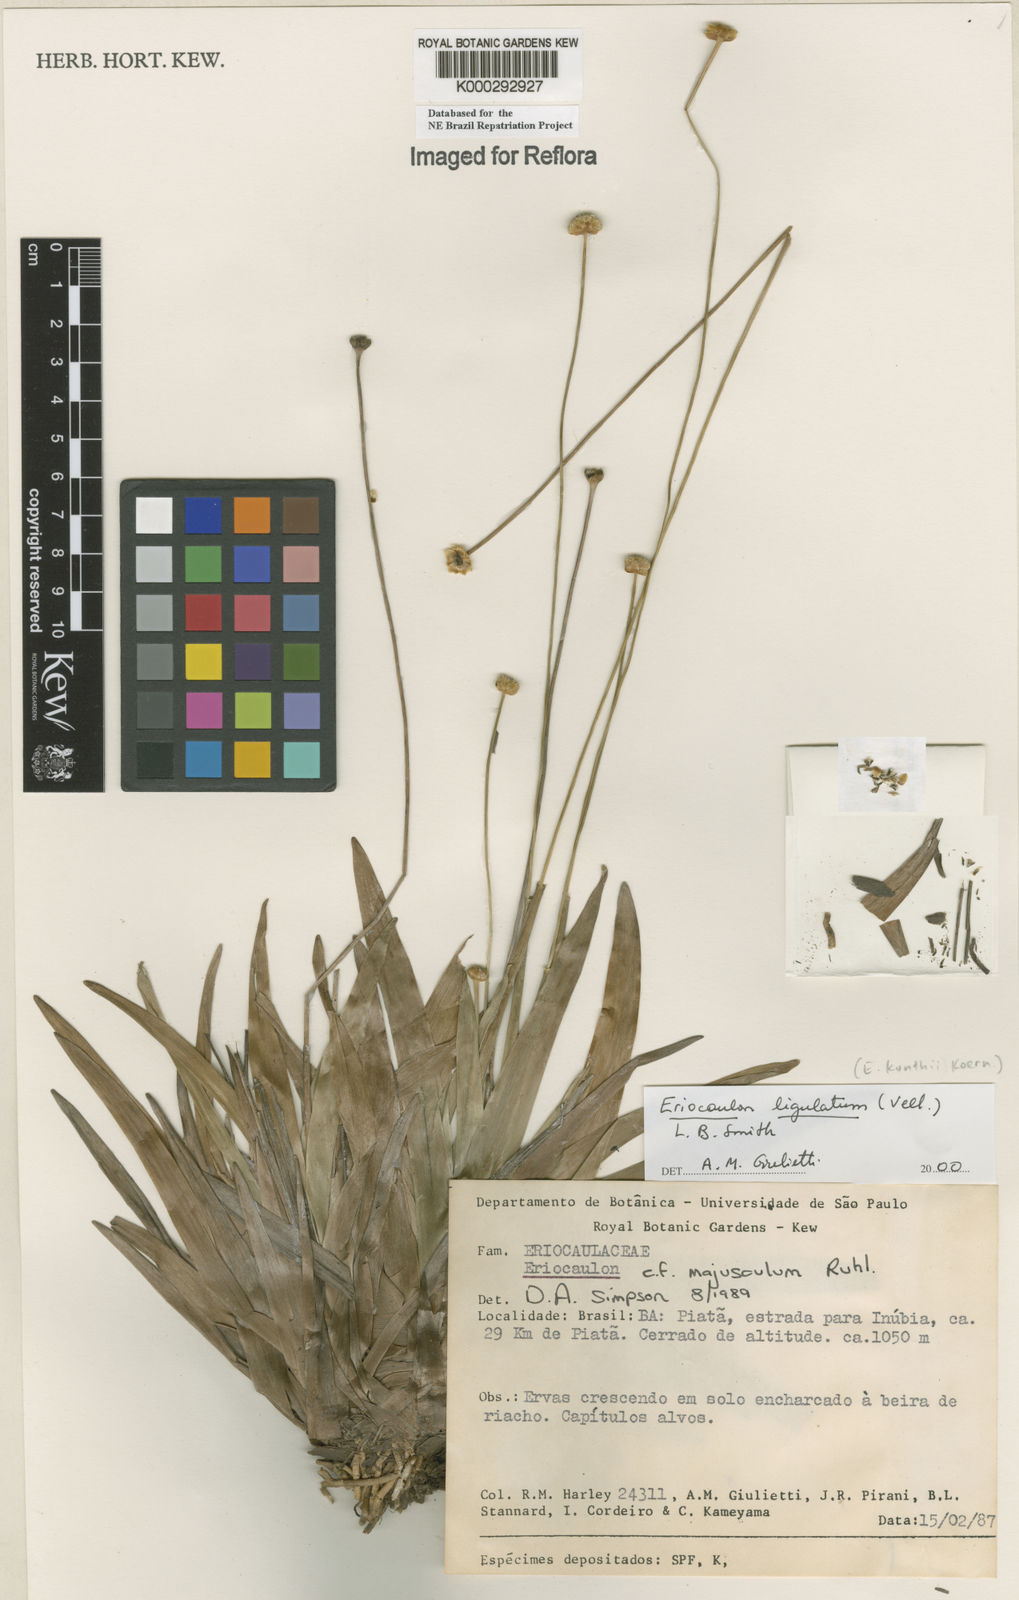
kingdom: Plantae
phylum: Tracheophyta
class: Liliopsida
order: Poales
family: Eriocaulaceae
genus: Eriocaulon
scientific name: Eriocaulon
